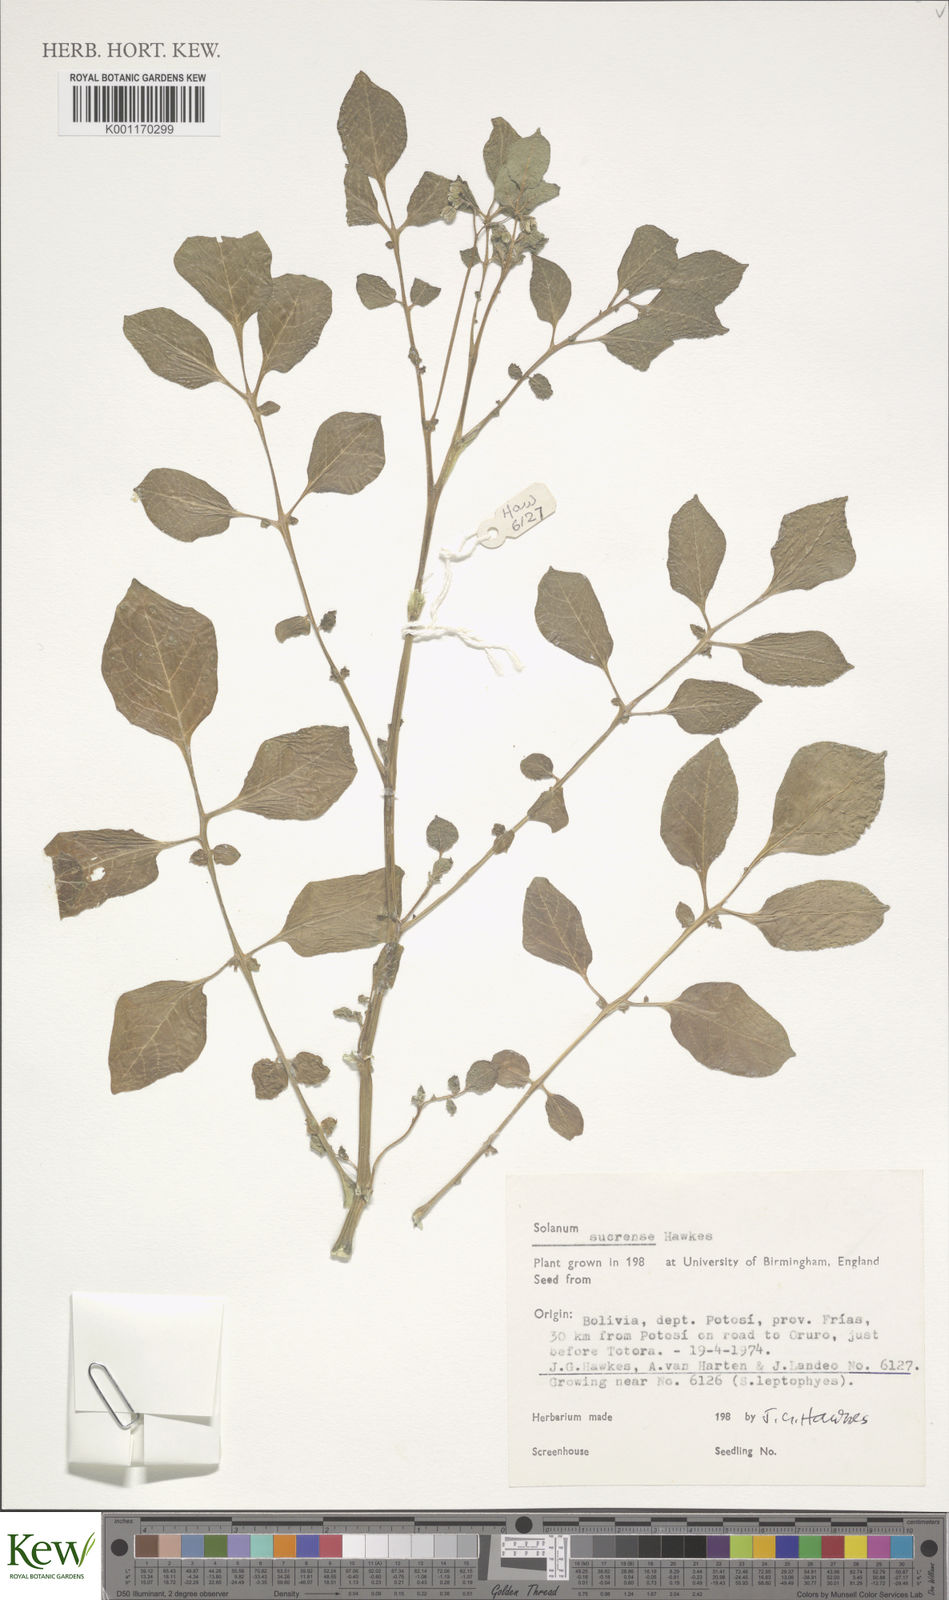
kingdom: Plantae
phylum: Tracheophyta
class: Magnoliopsida
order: Solanales
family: Solanaceae
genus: Solanum
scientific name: Solanum brevicaule
